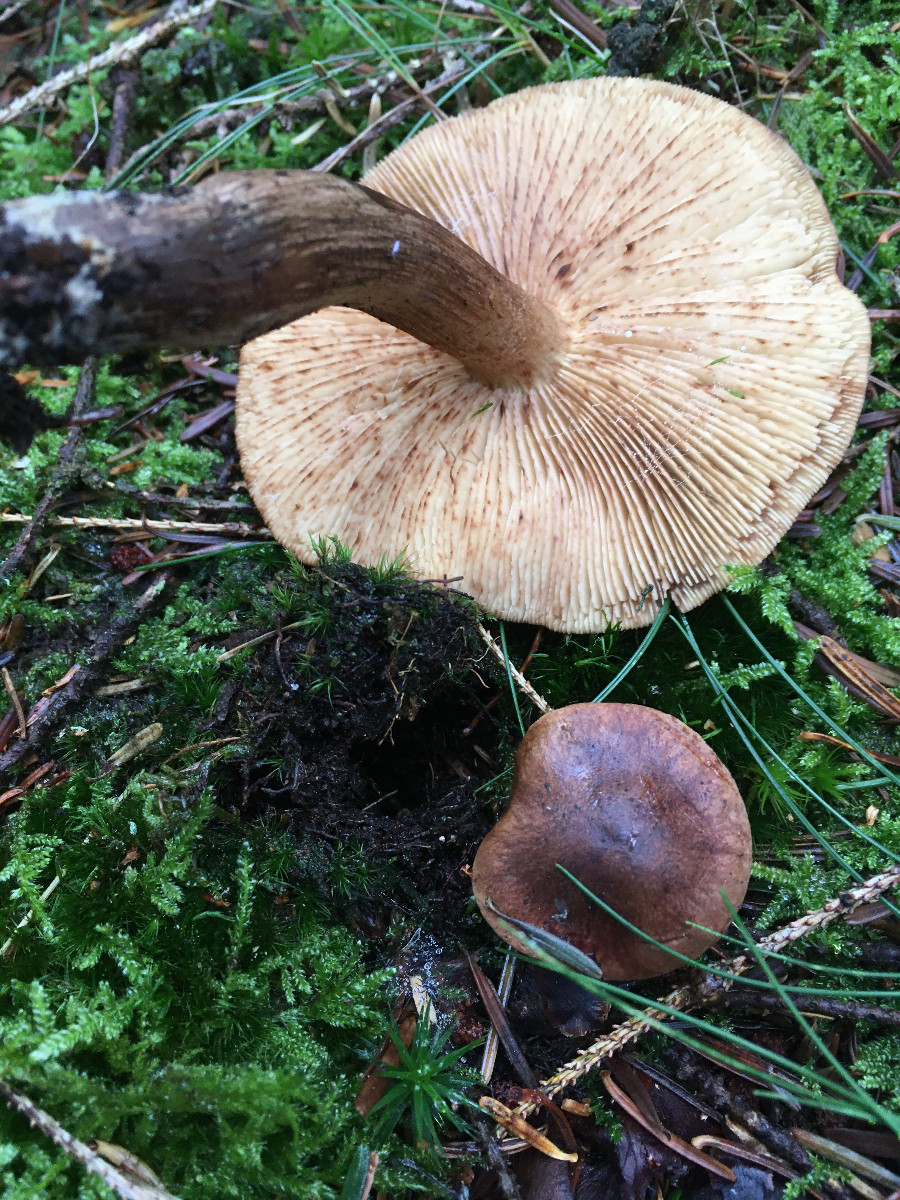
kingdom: Fungi
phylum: Basidiomycota
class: Agaricomycetes
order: Agaricales
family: Tricholomataceae
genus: Tricholoma
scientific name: Tricholoma fulvum
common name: birke-ridderhat
